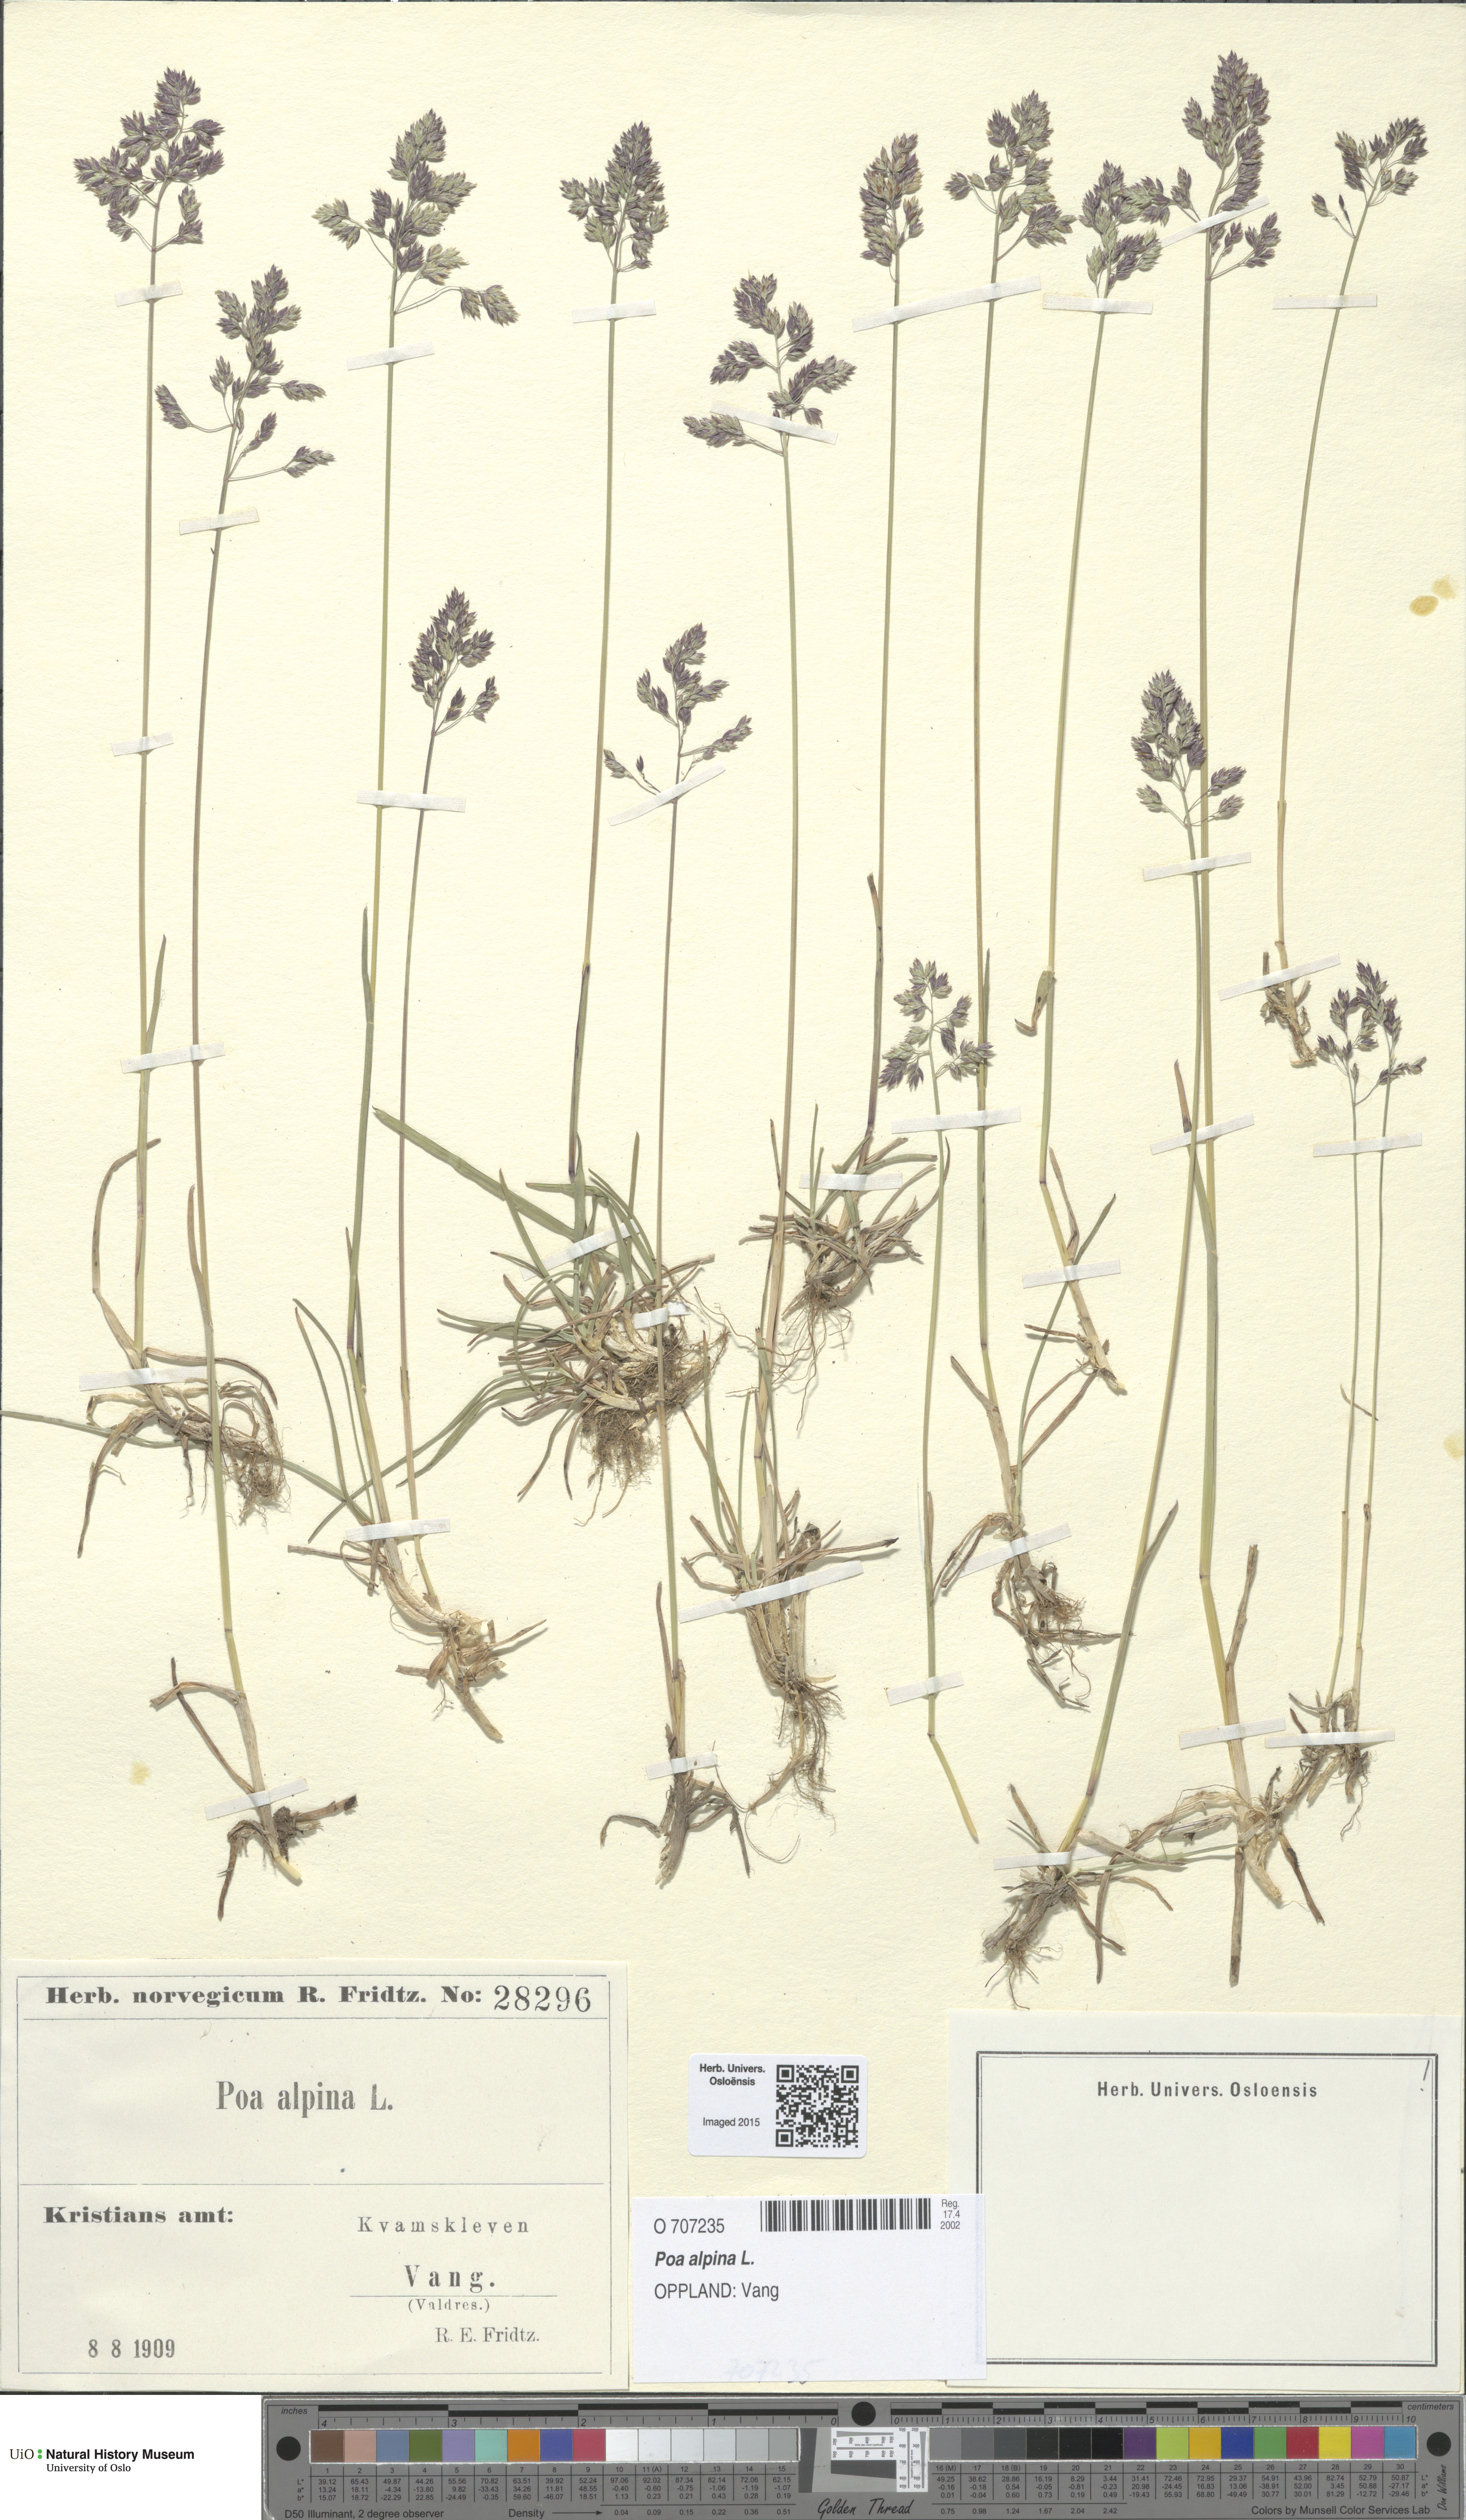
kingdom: Plantae
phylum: Tracheophyta
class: Liliopsida
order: Poales
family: Poaceae
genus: Poa
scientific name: Poa alpina
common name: Alpine bluegrass
